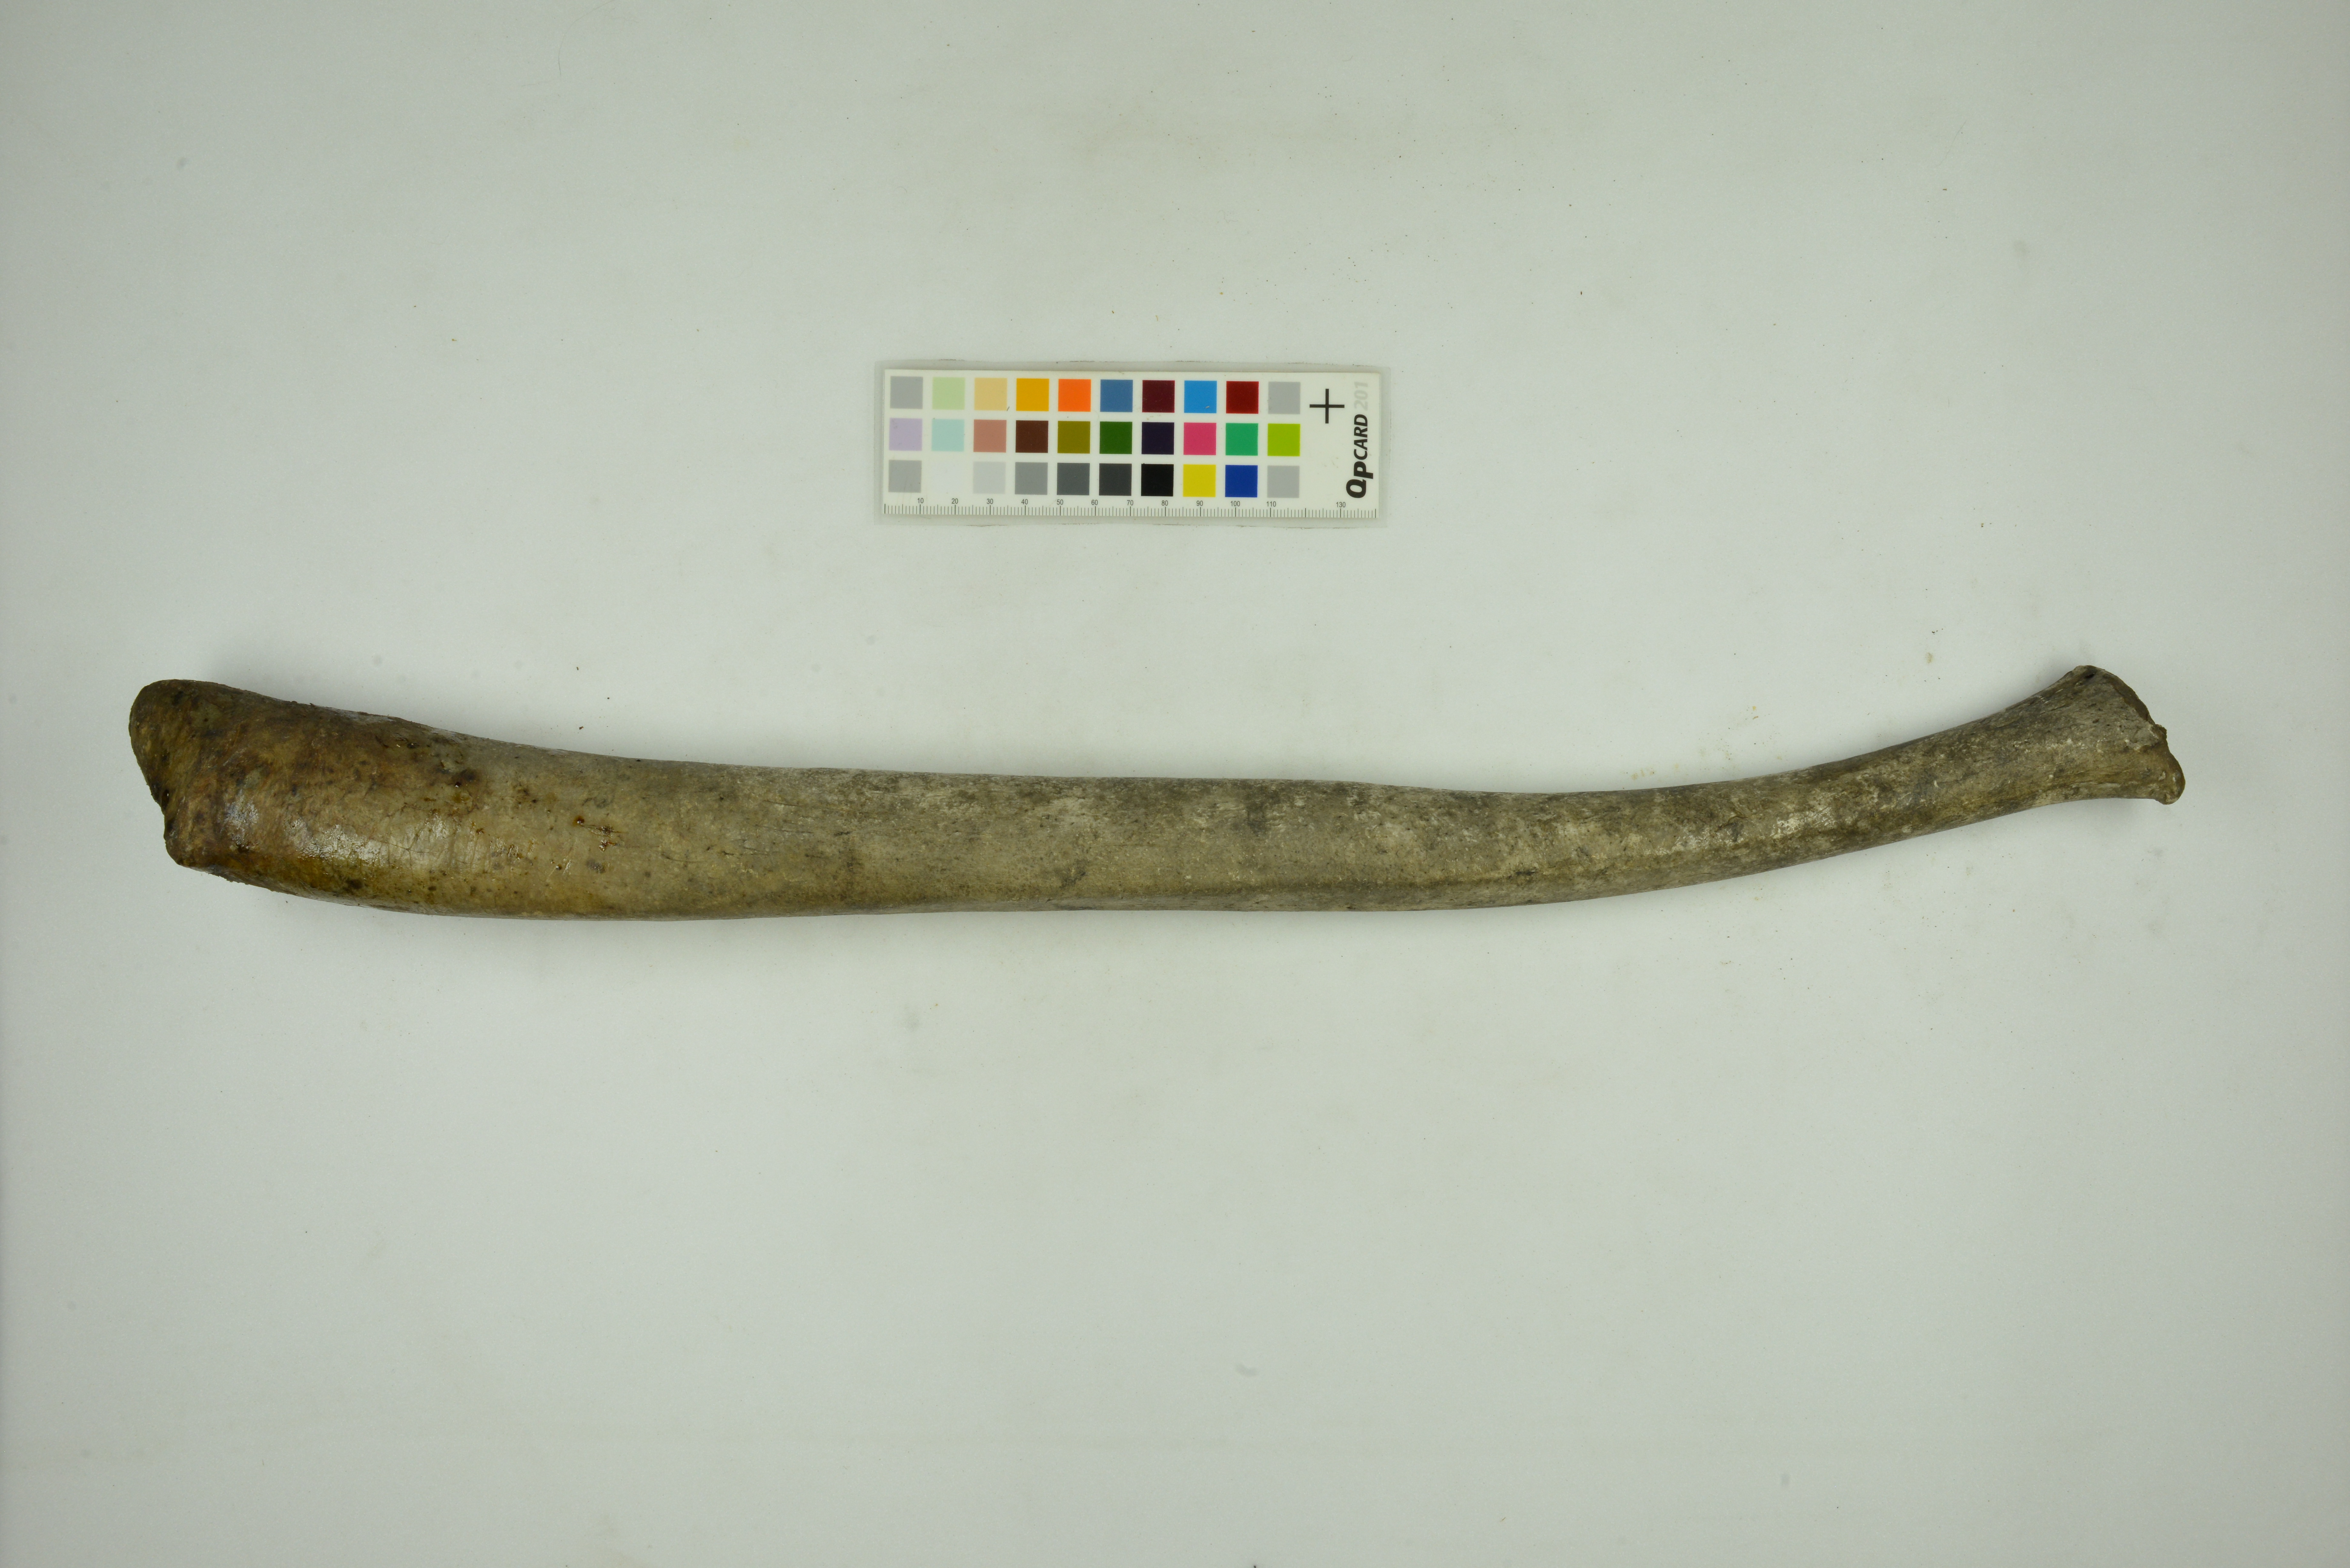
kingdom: Animalia
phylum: Chordata
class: Mammalia
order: Carnivora
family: Odobenidae
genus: Odobenus
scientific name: Odobenus rosmarus
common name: Walrus
